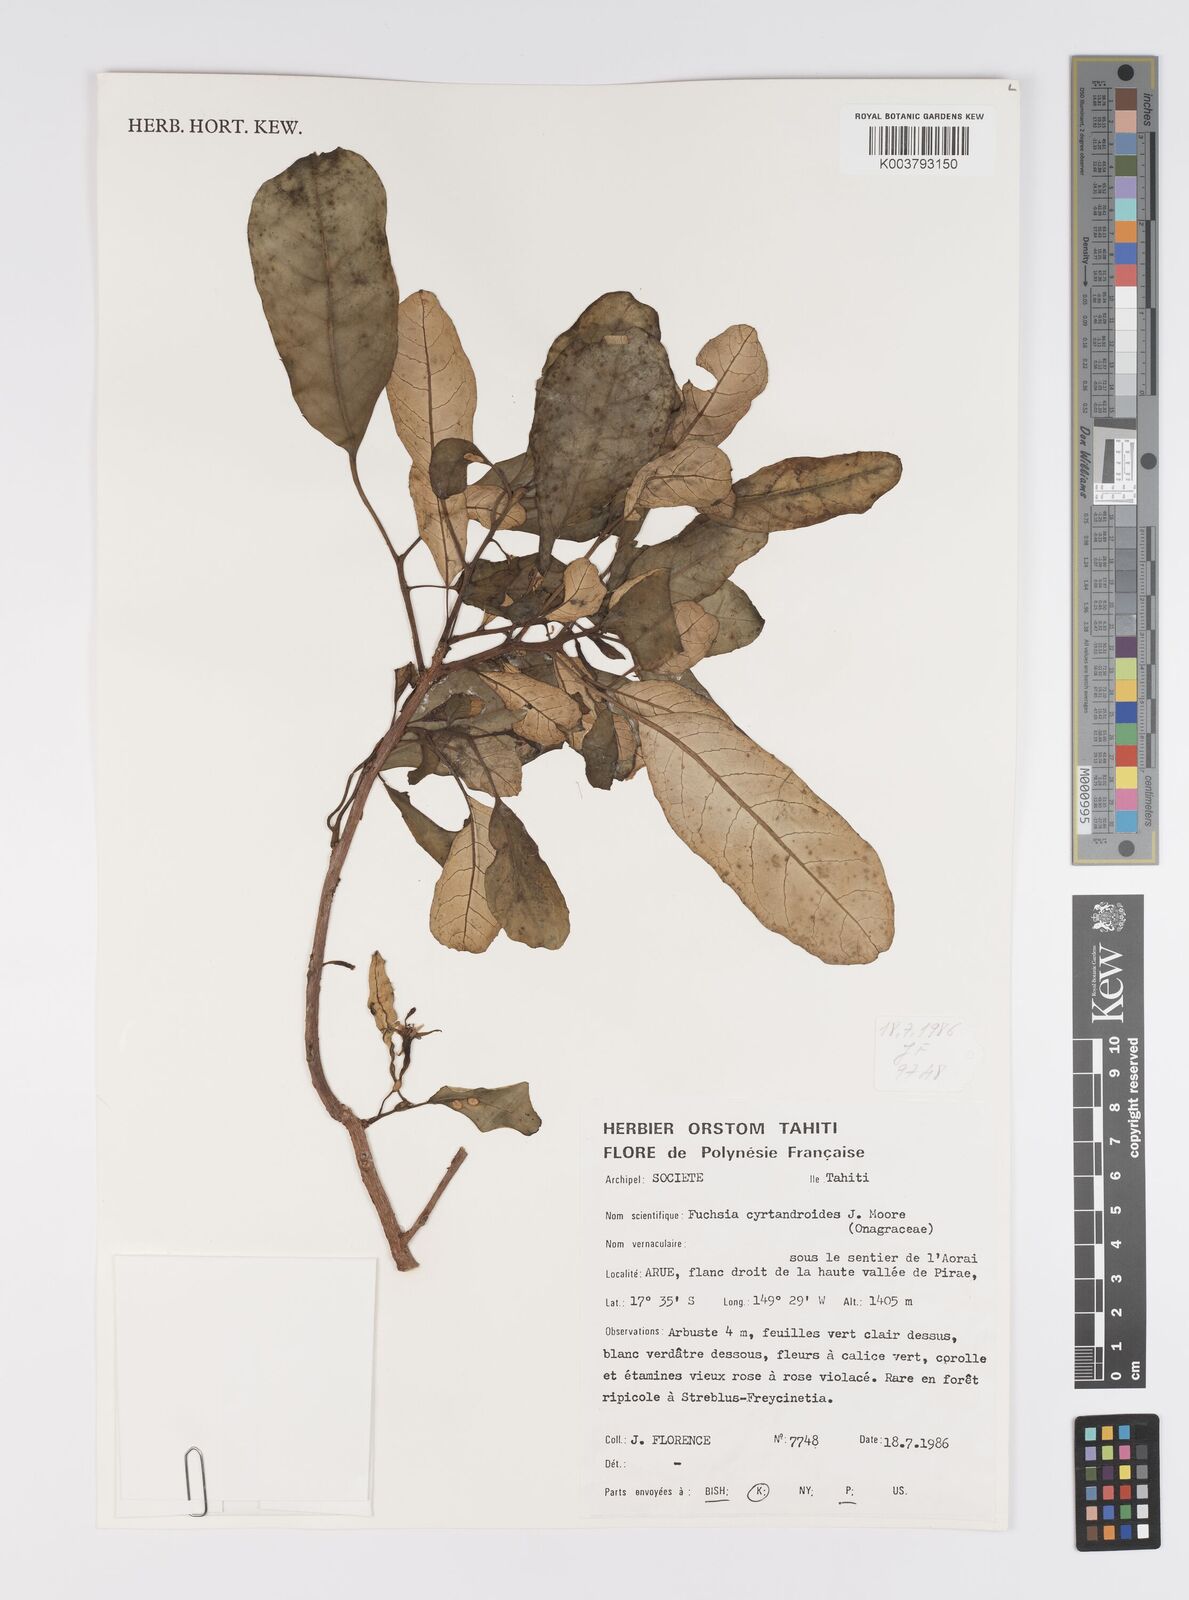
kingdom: Plantae
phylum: Tracheophyta
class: Magnoliopsida
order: Myrtales
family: Onagraceae
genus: Fuchsia
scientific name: Fuchsia cyrtandroides
